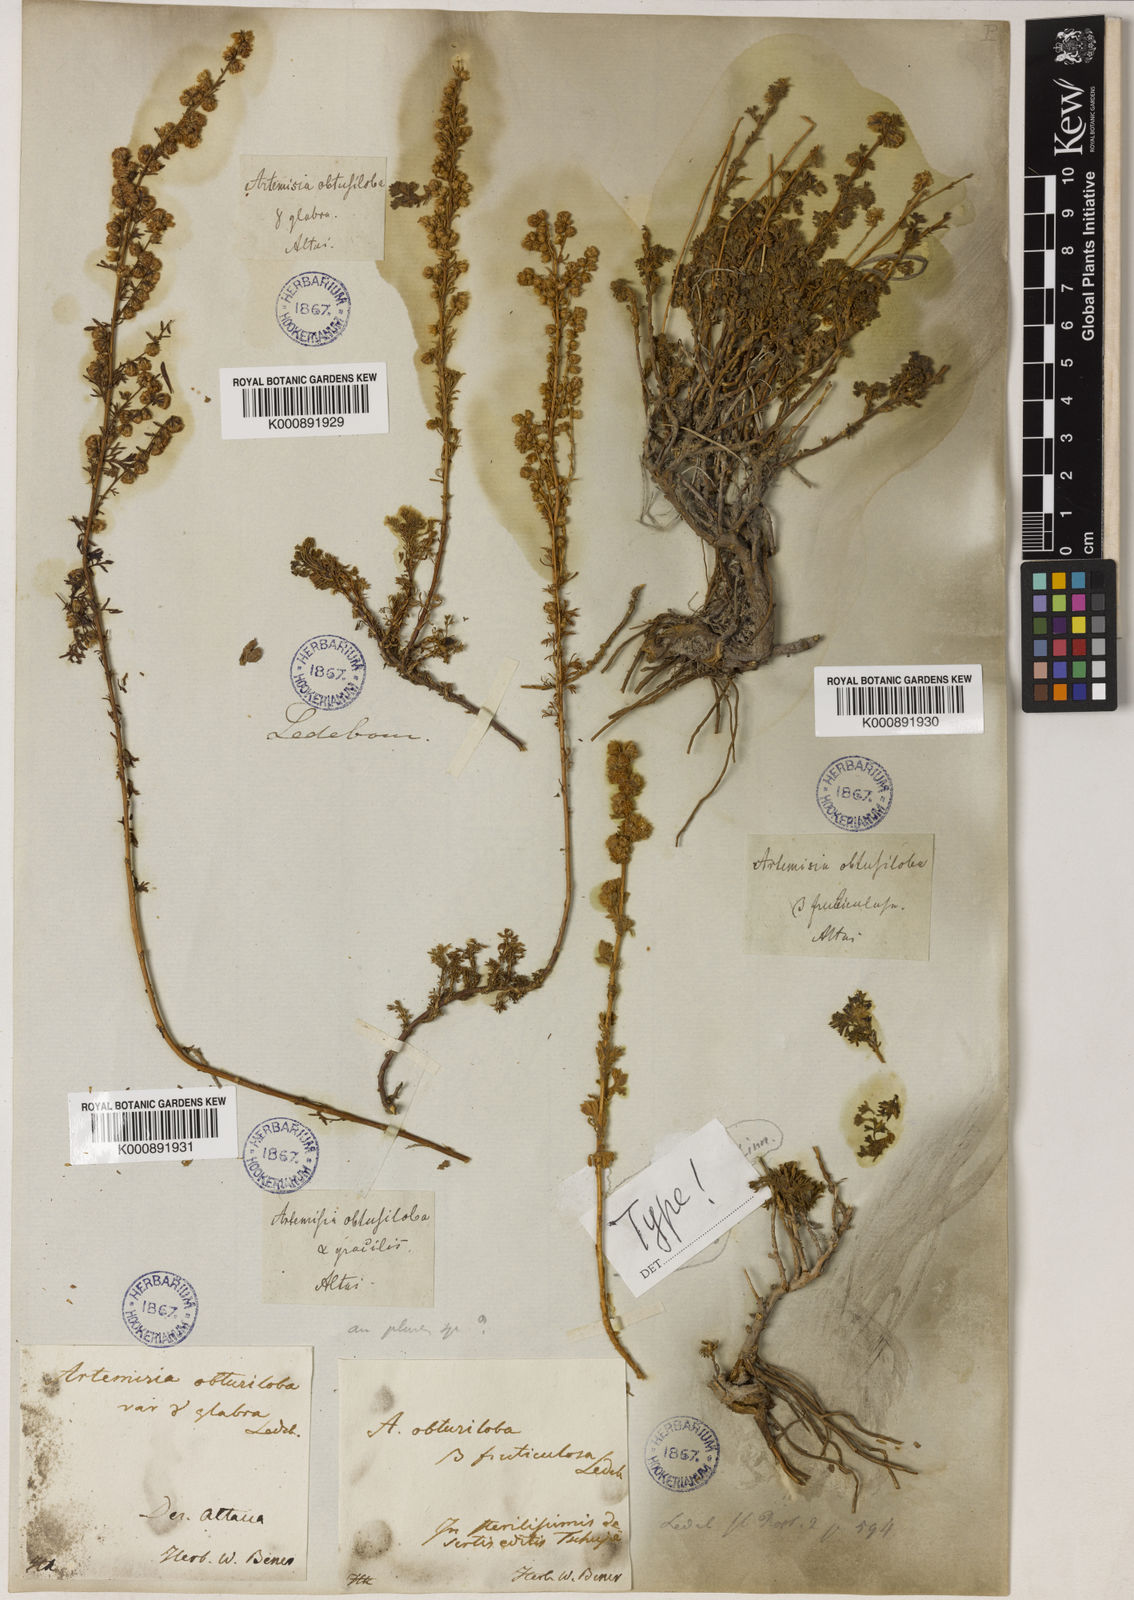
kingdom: Plantae
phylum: Tracheophyta
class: Magnoliopsida
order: Asterales
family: Asteraceae
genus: Artemisia
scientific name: Artemisia obtusiloba
